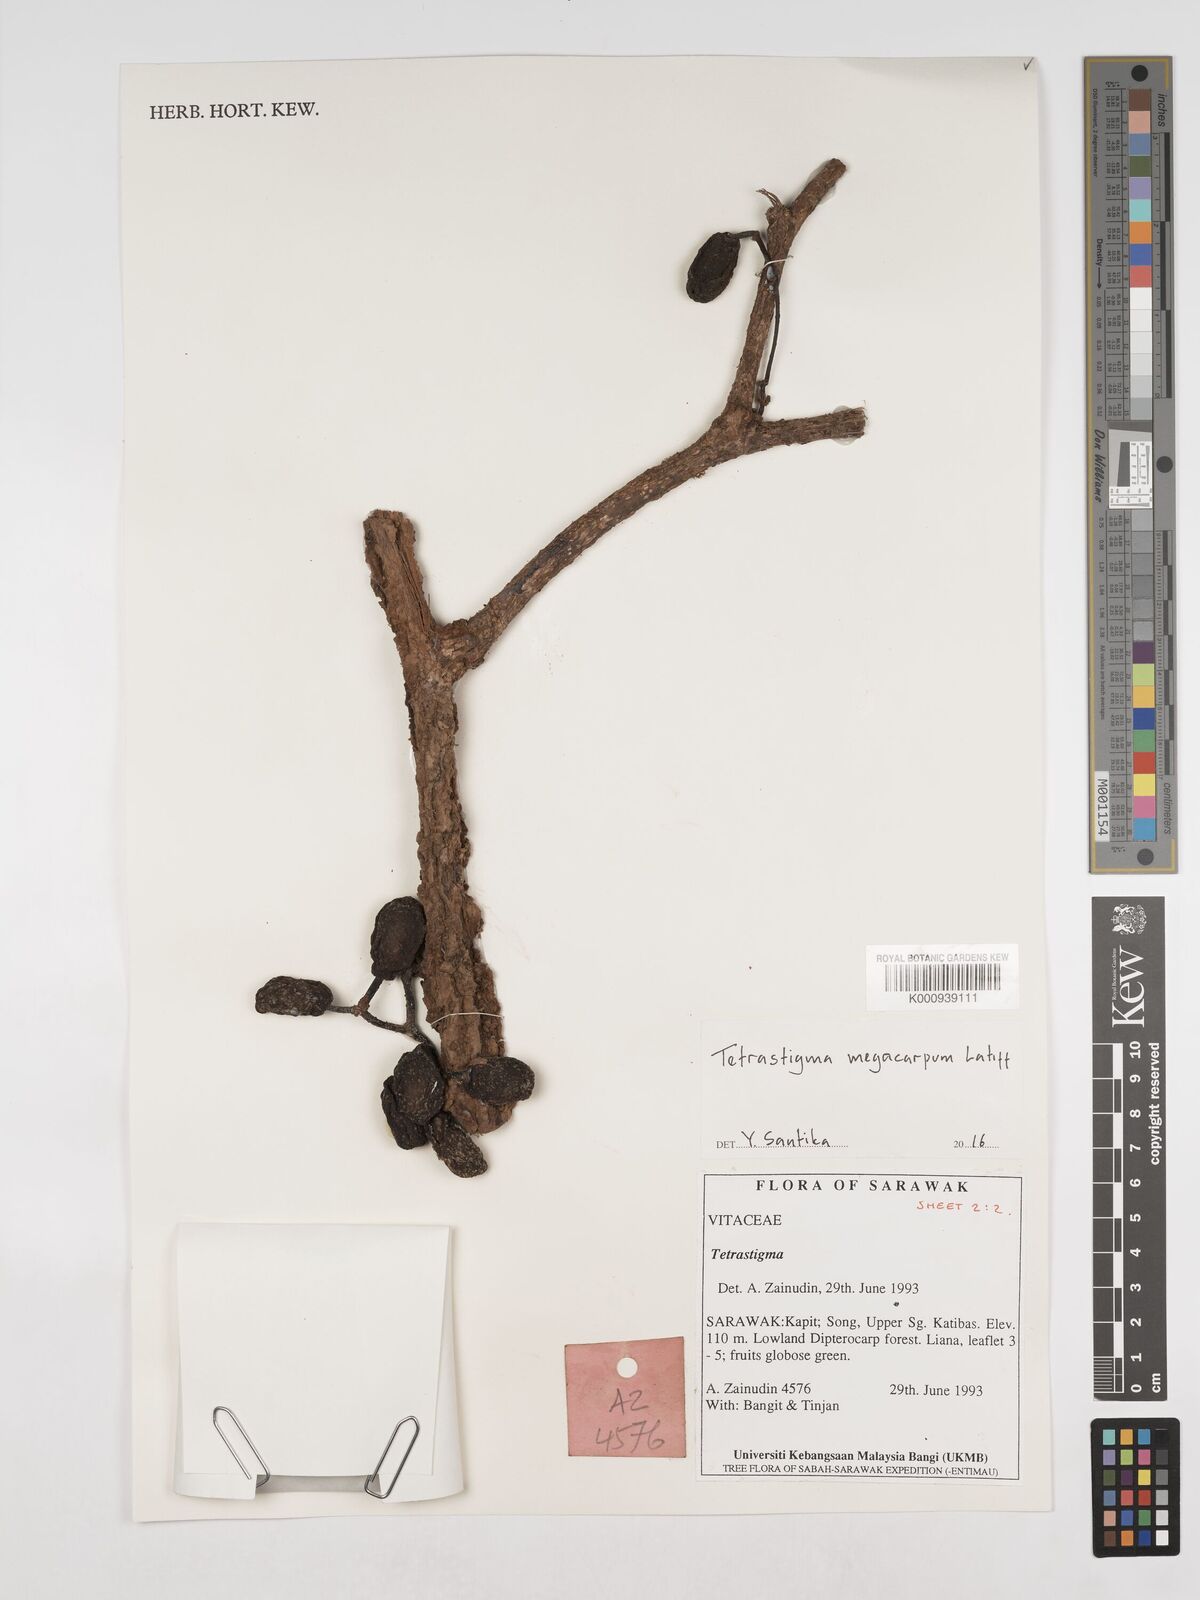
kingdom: Plantae
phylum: Tracheophyta
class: Magnoliopsida
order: Vitales
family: Vitaceae
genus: Tetrastigma
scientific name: Tetrastigma megacarpum
